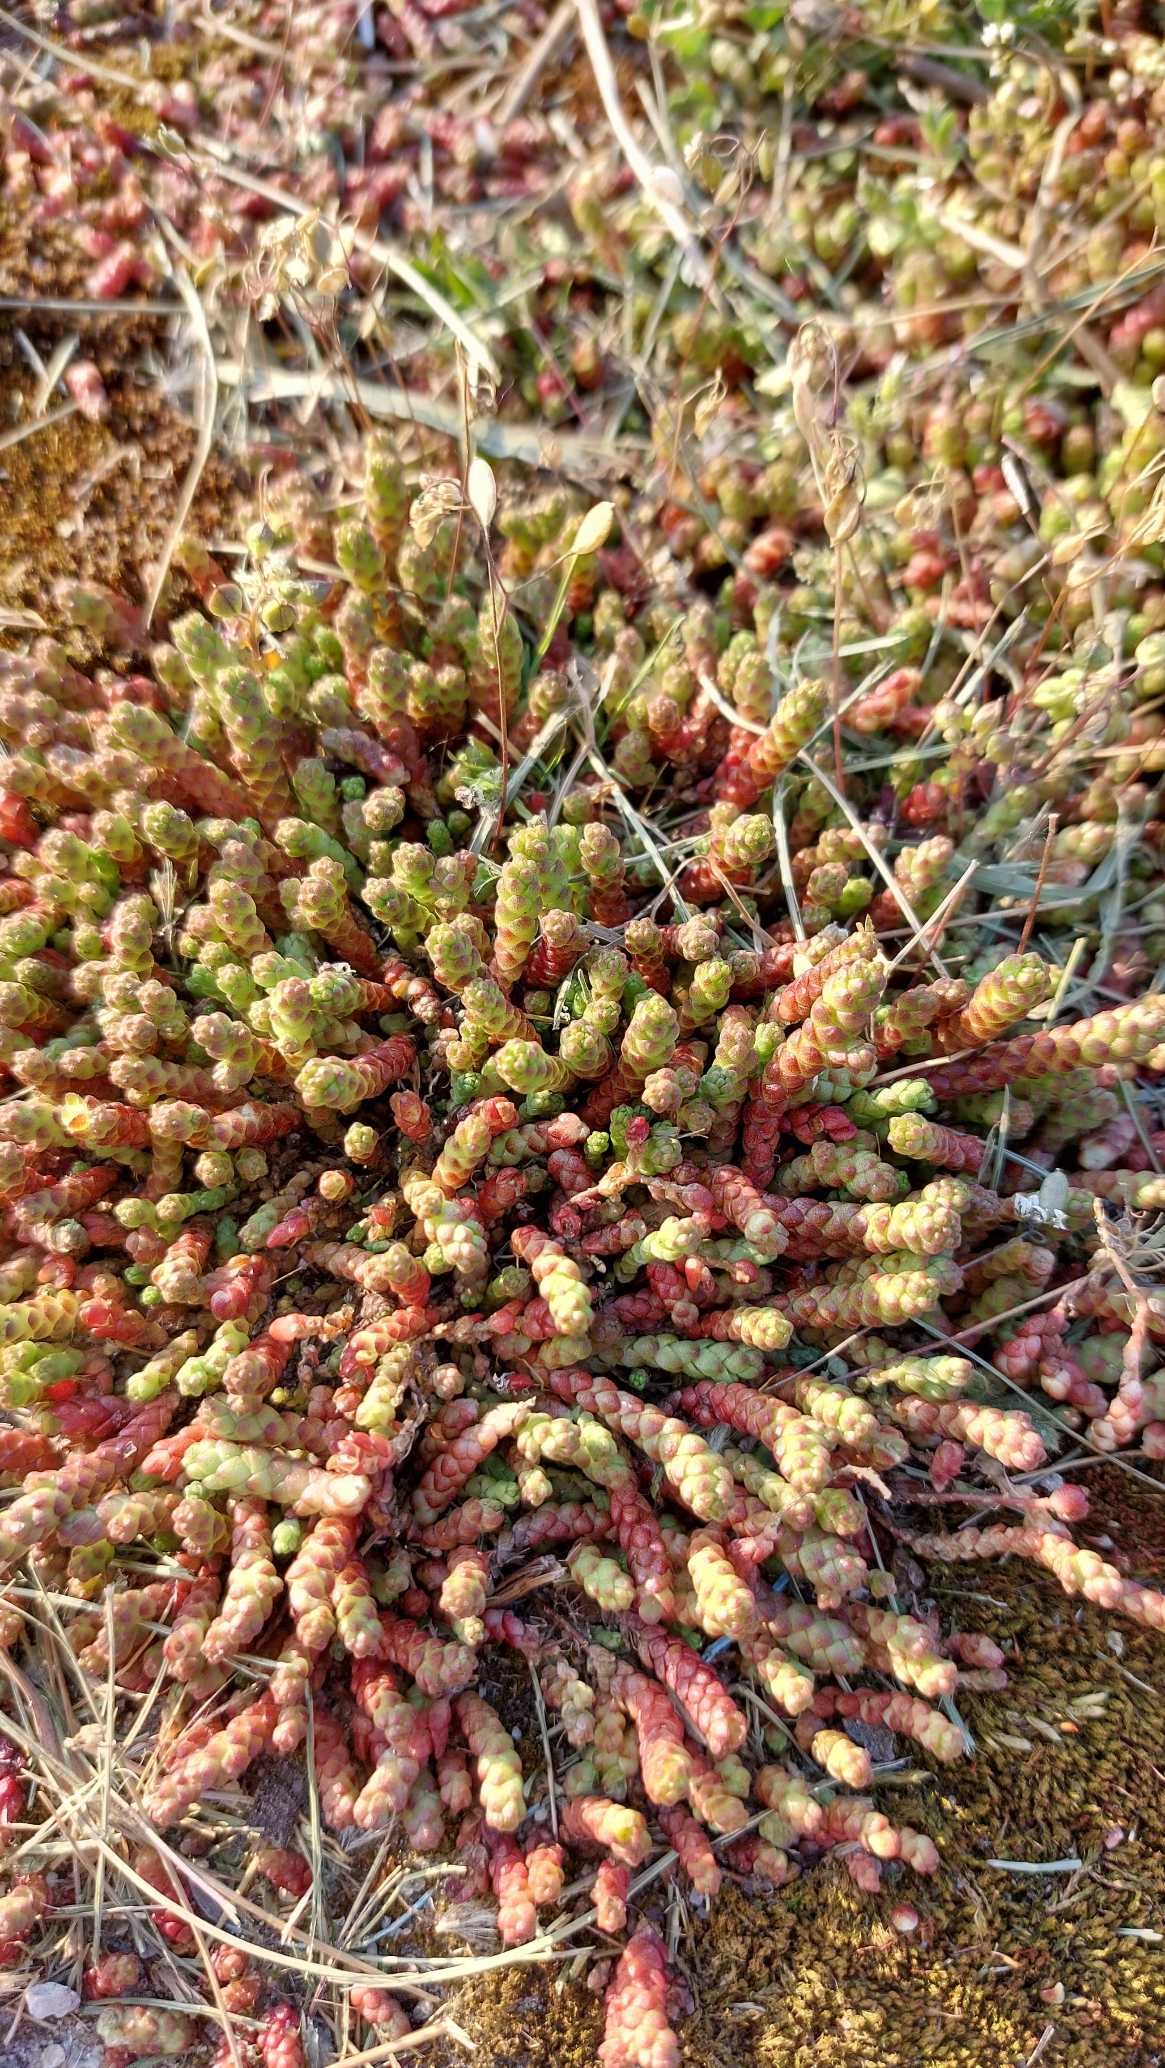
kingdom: Plantae
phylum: Tracheophyta
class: Magnoliopsida
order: Saxifragales
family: Crassulaceae
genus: Sedum
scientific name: Sedum acre
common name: Bidende stenurt
